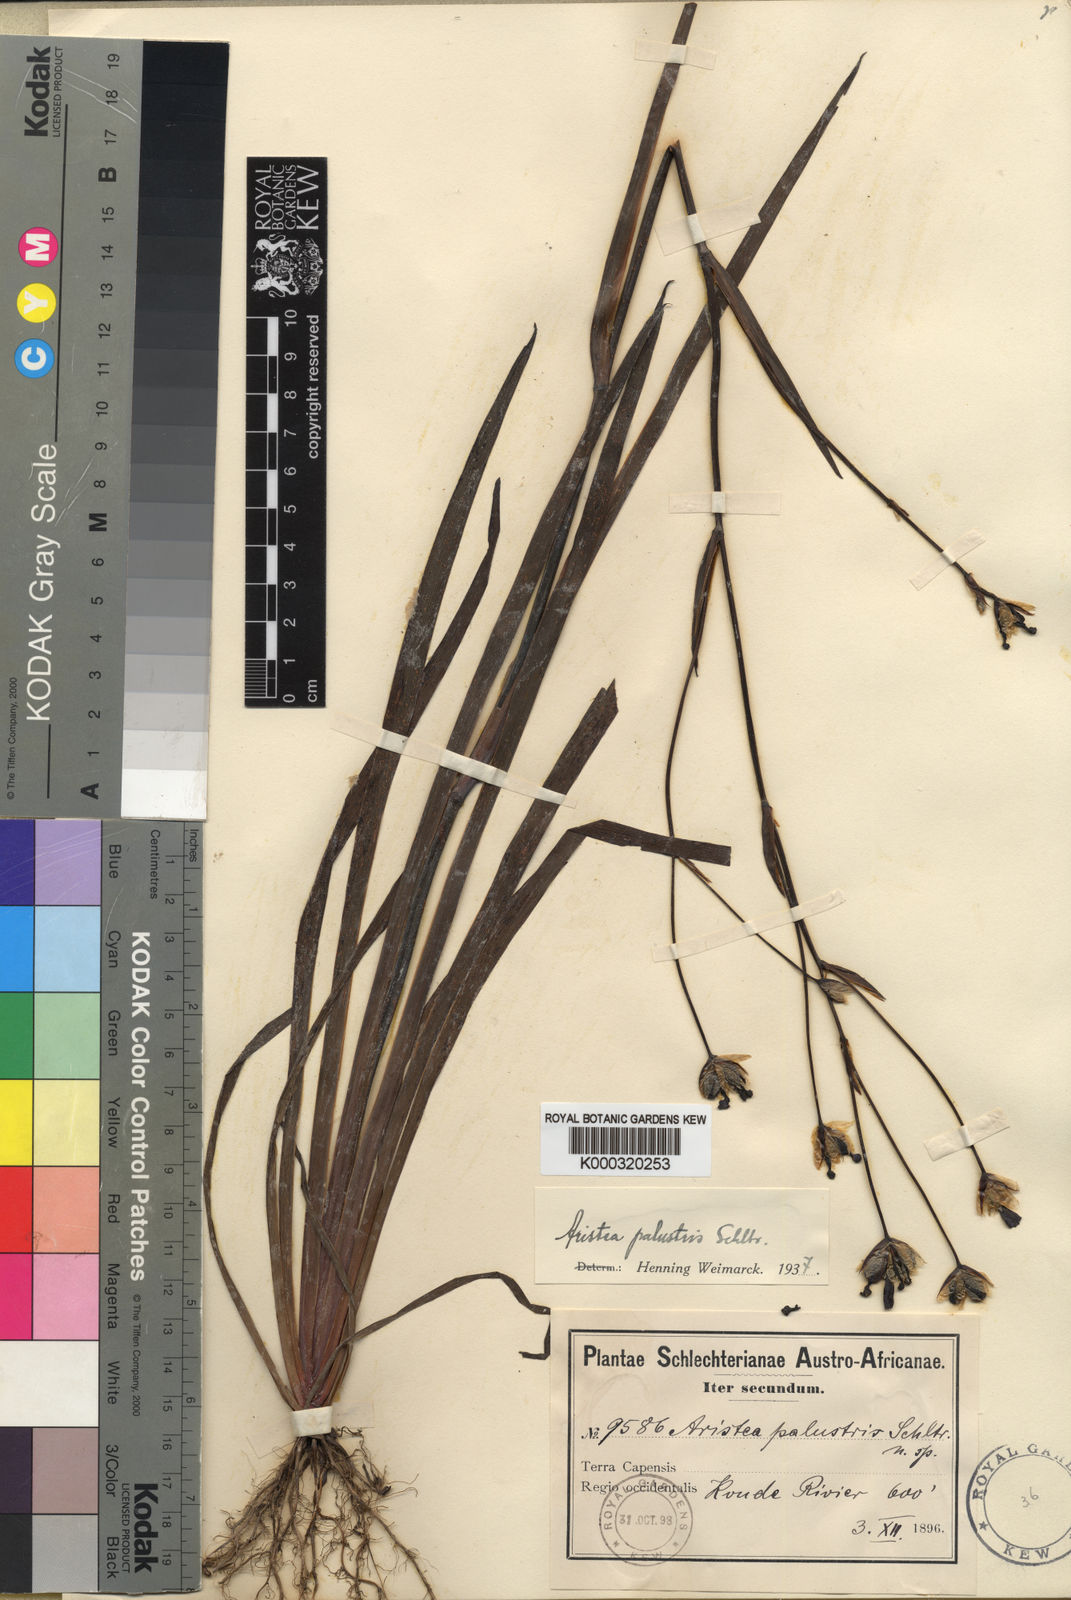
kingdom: Plantae
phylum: Tracheophyta
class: Liliopsida
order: Asparagales
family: Iridaceae
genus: Aristea
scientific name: Aristea palustris
